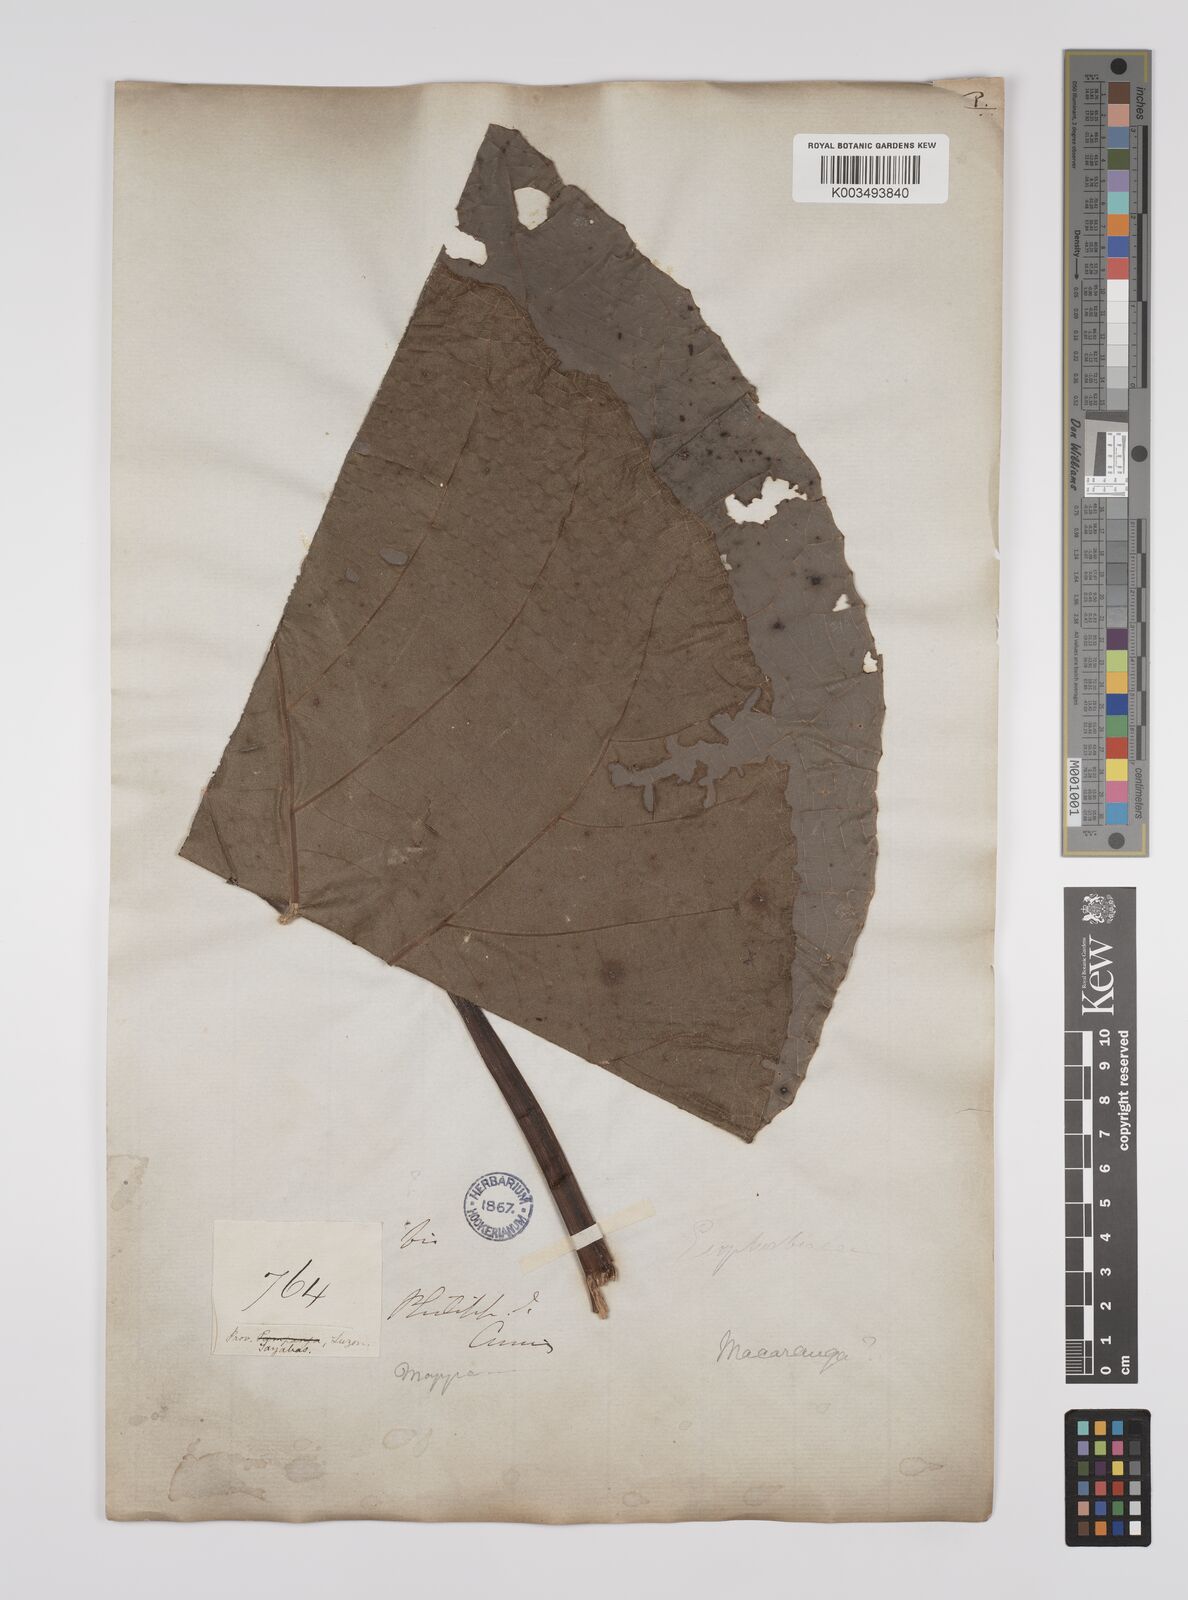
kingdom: Plantae
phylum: Tracheophyta
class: Magnoliopsida
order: Malpighiales
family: Euphorbiaceae
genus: Macaranga
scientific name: Macaranga grandifolia
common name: Coraltree
